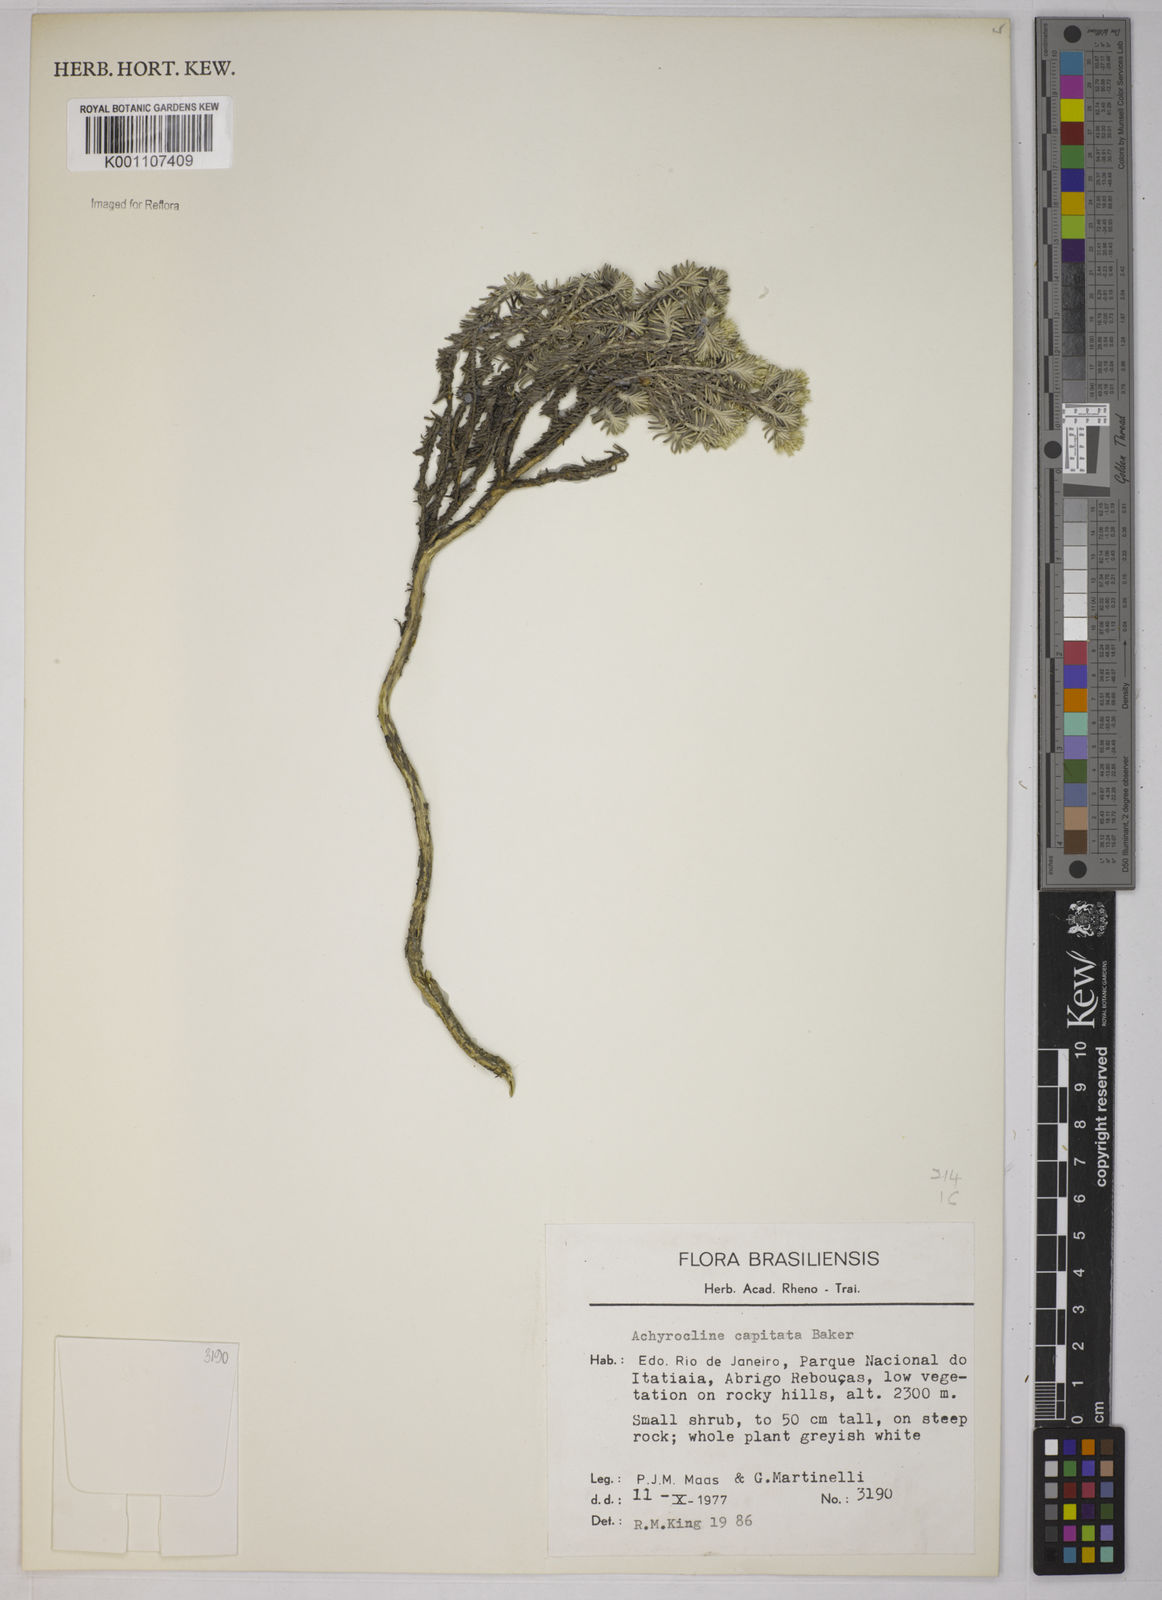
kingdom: Plantae
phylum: Tracheophyta
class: Magnoliopsida
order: Asterales
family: Asteraceae
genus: Chionolaena
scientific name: Chionolaena capitata
